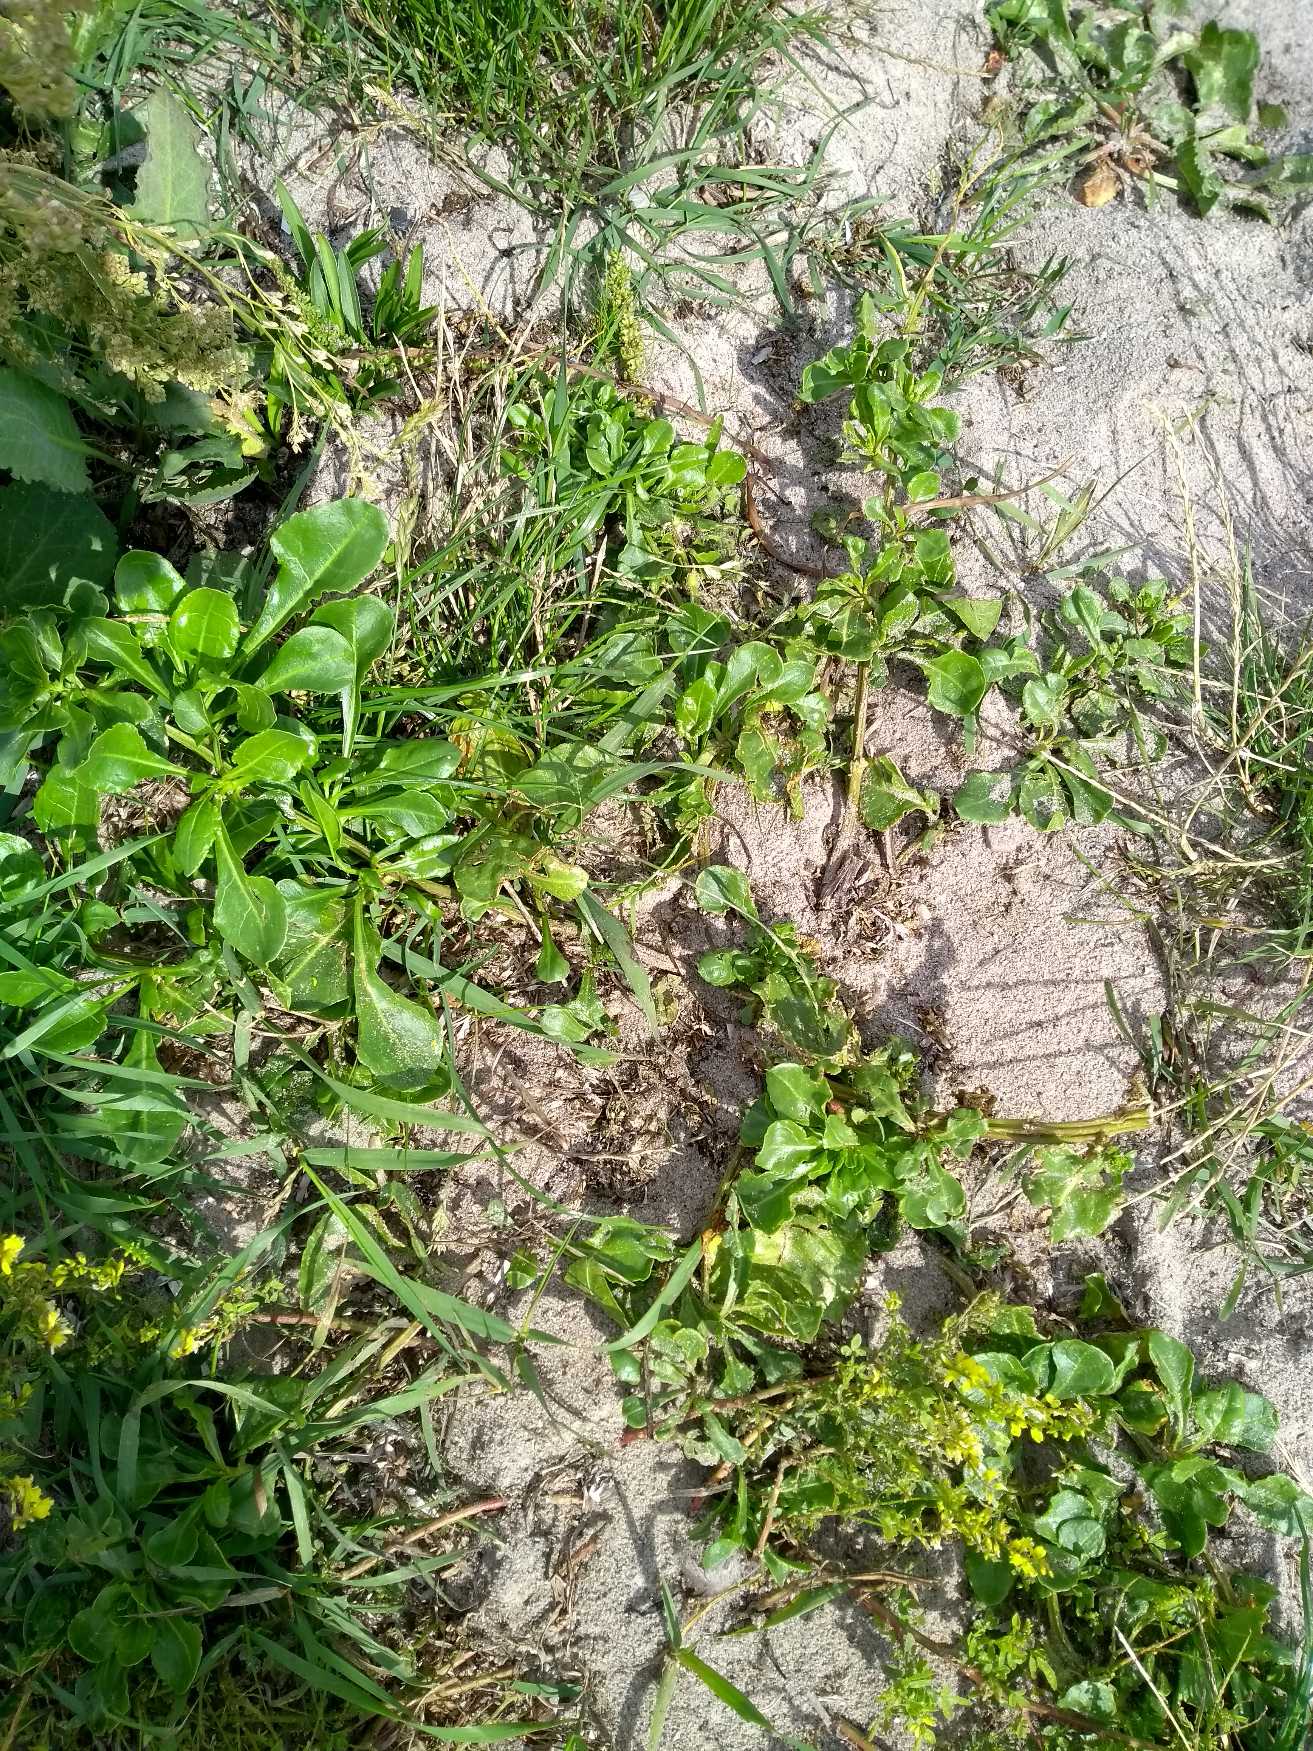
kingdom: Plantae
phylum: Tracheophyta
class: Magnoliopsida
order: Caryophyllales
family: Amaranthaceae
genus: Beta
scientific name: Beta maritima
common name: Strand-bede
